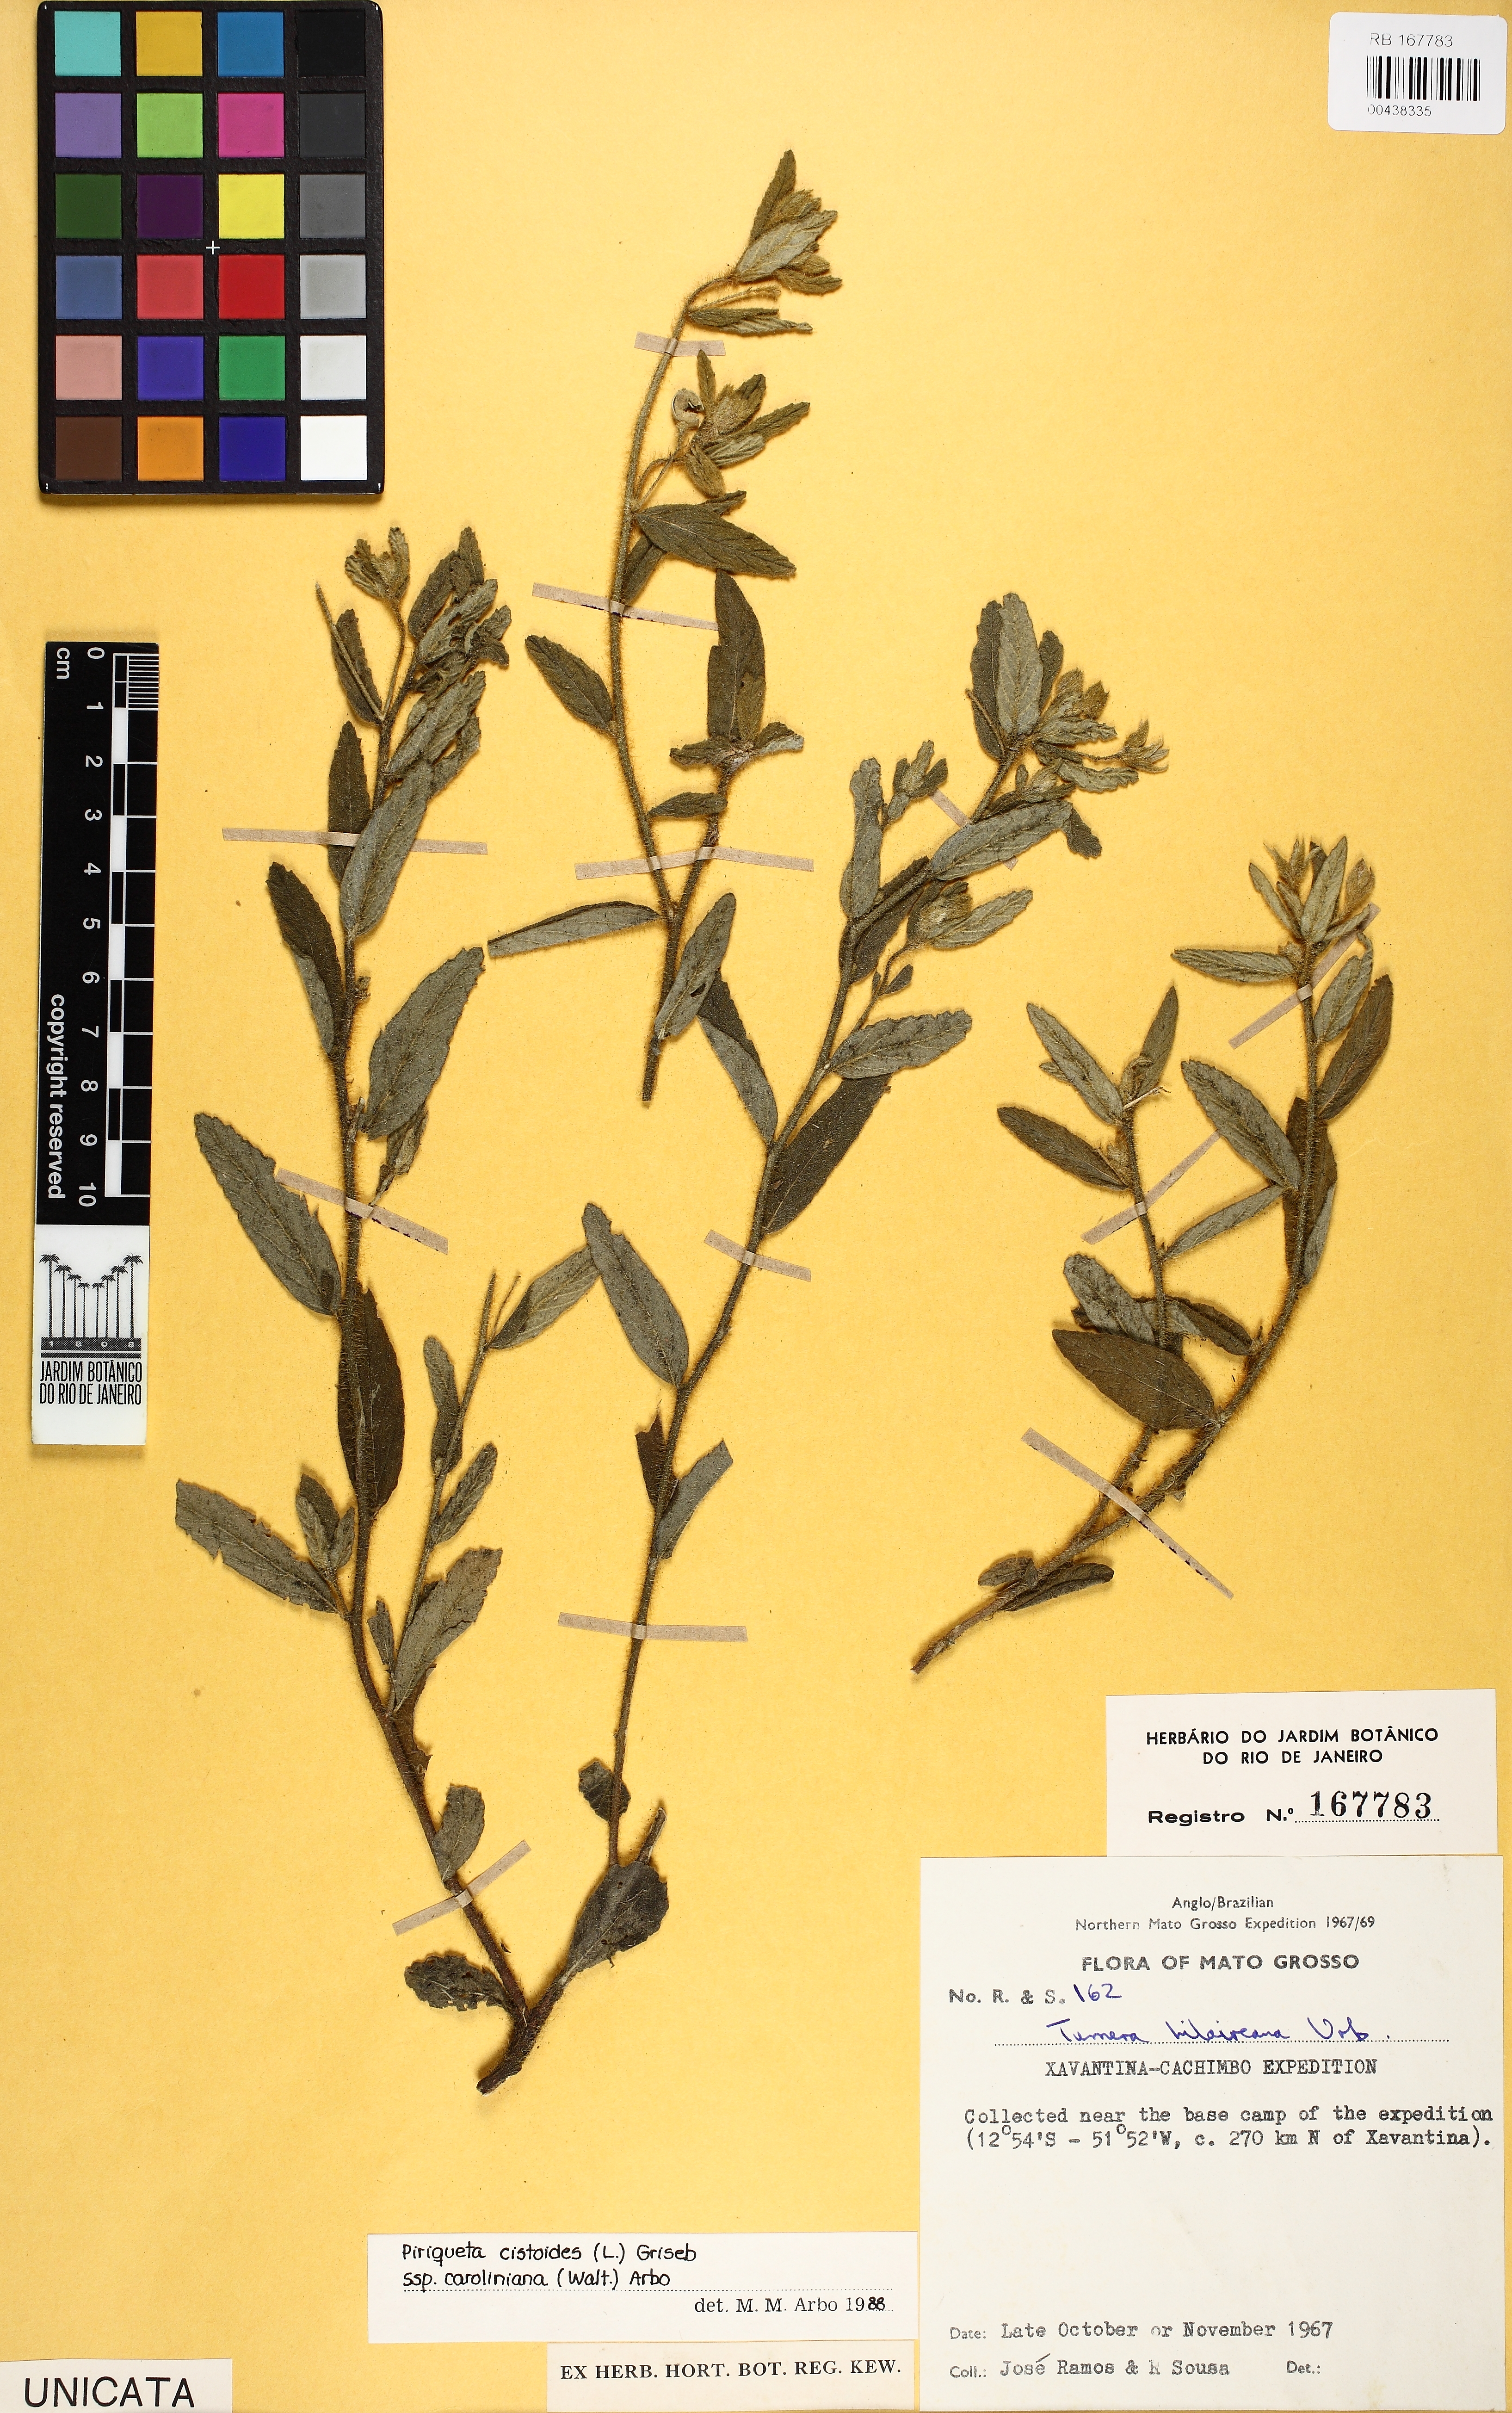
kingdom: Plantae
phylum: Tracheophyta
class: Magnoliopsida
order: Malpighiales
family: Turneraceae
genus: Piriqueta
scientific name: Piriqueta cistoides
